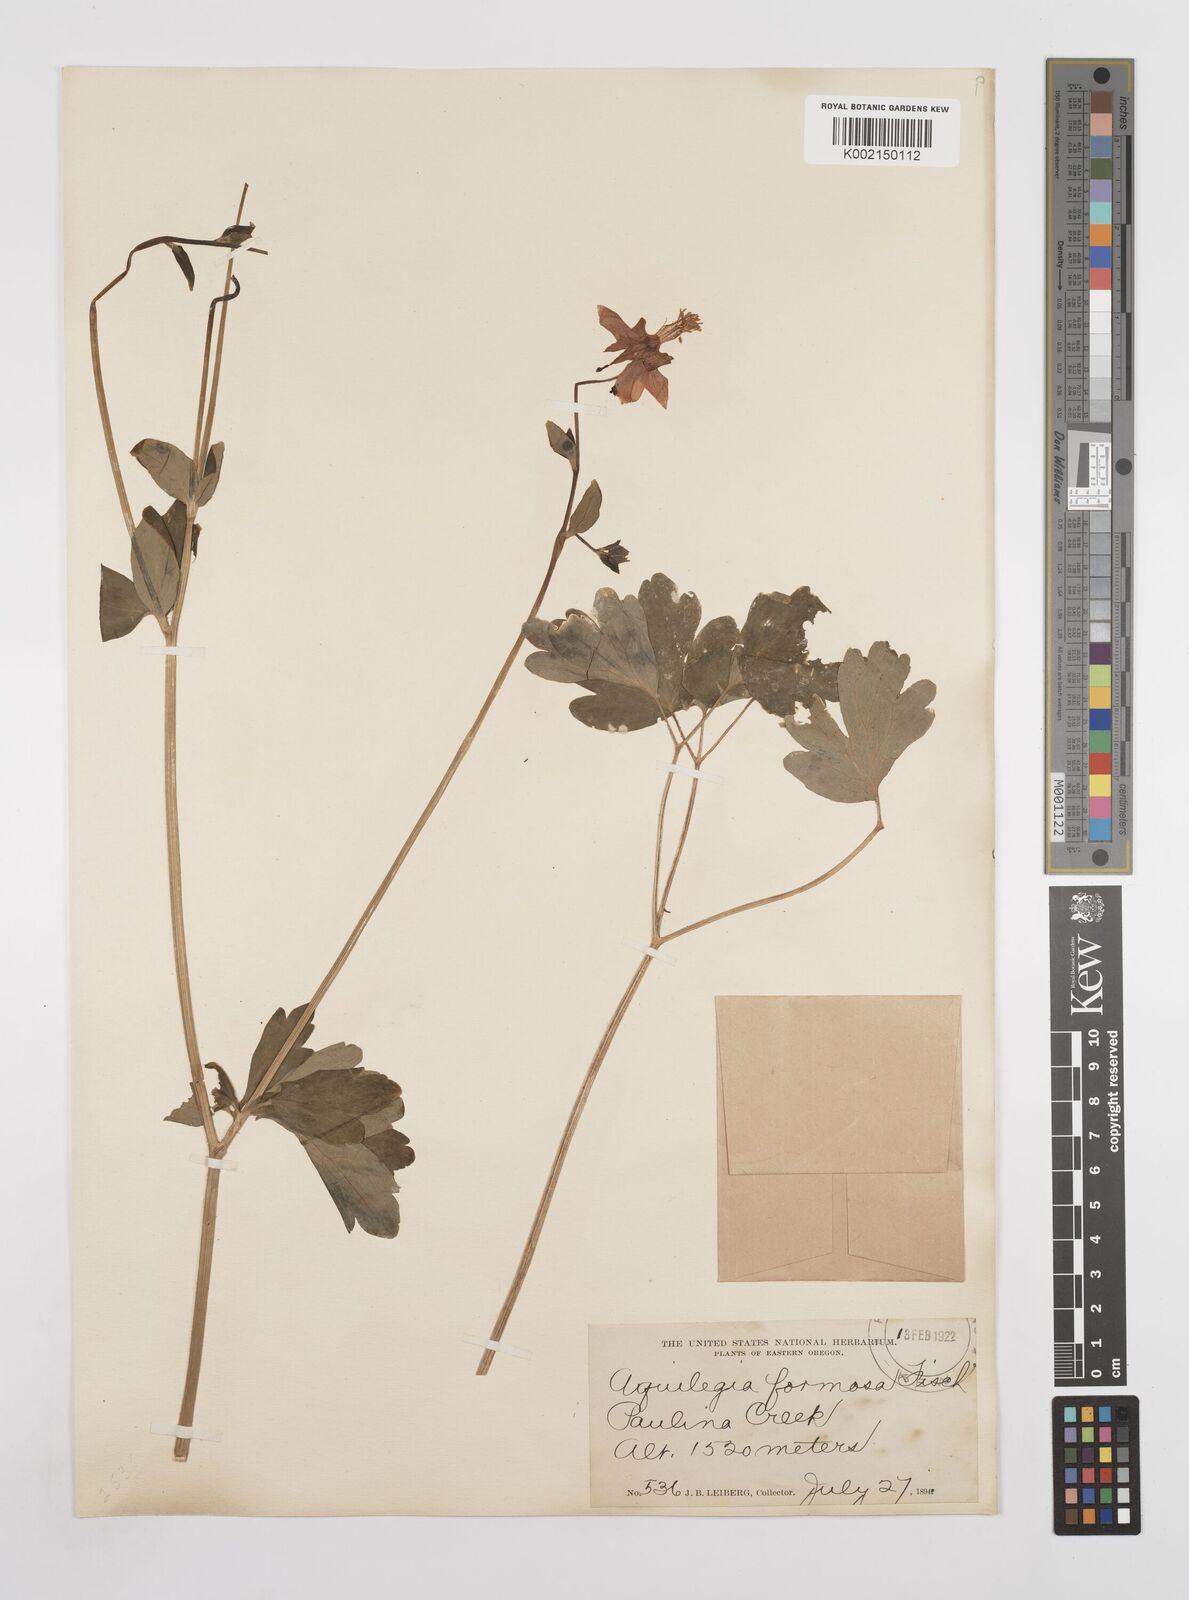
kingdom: Plantae
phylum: Tracheophyta
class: Magnoliopsida
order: Ranunculales
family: Ranunculaceae
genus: Aquilegia
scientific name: Aquilegia
